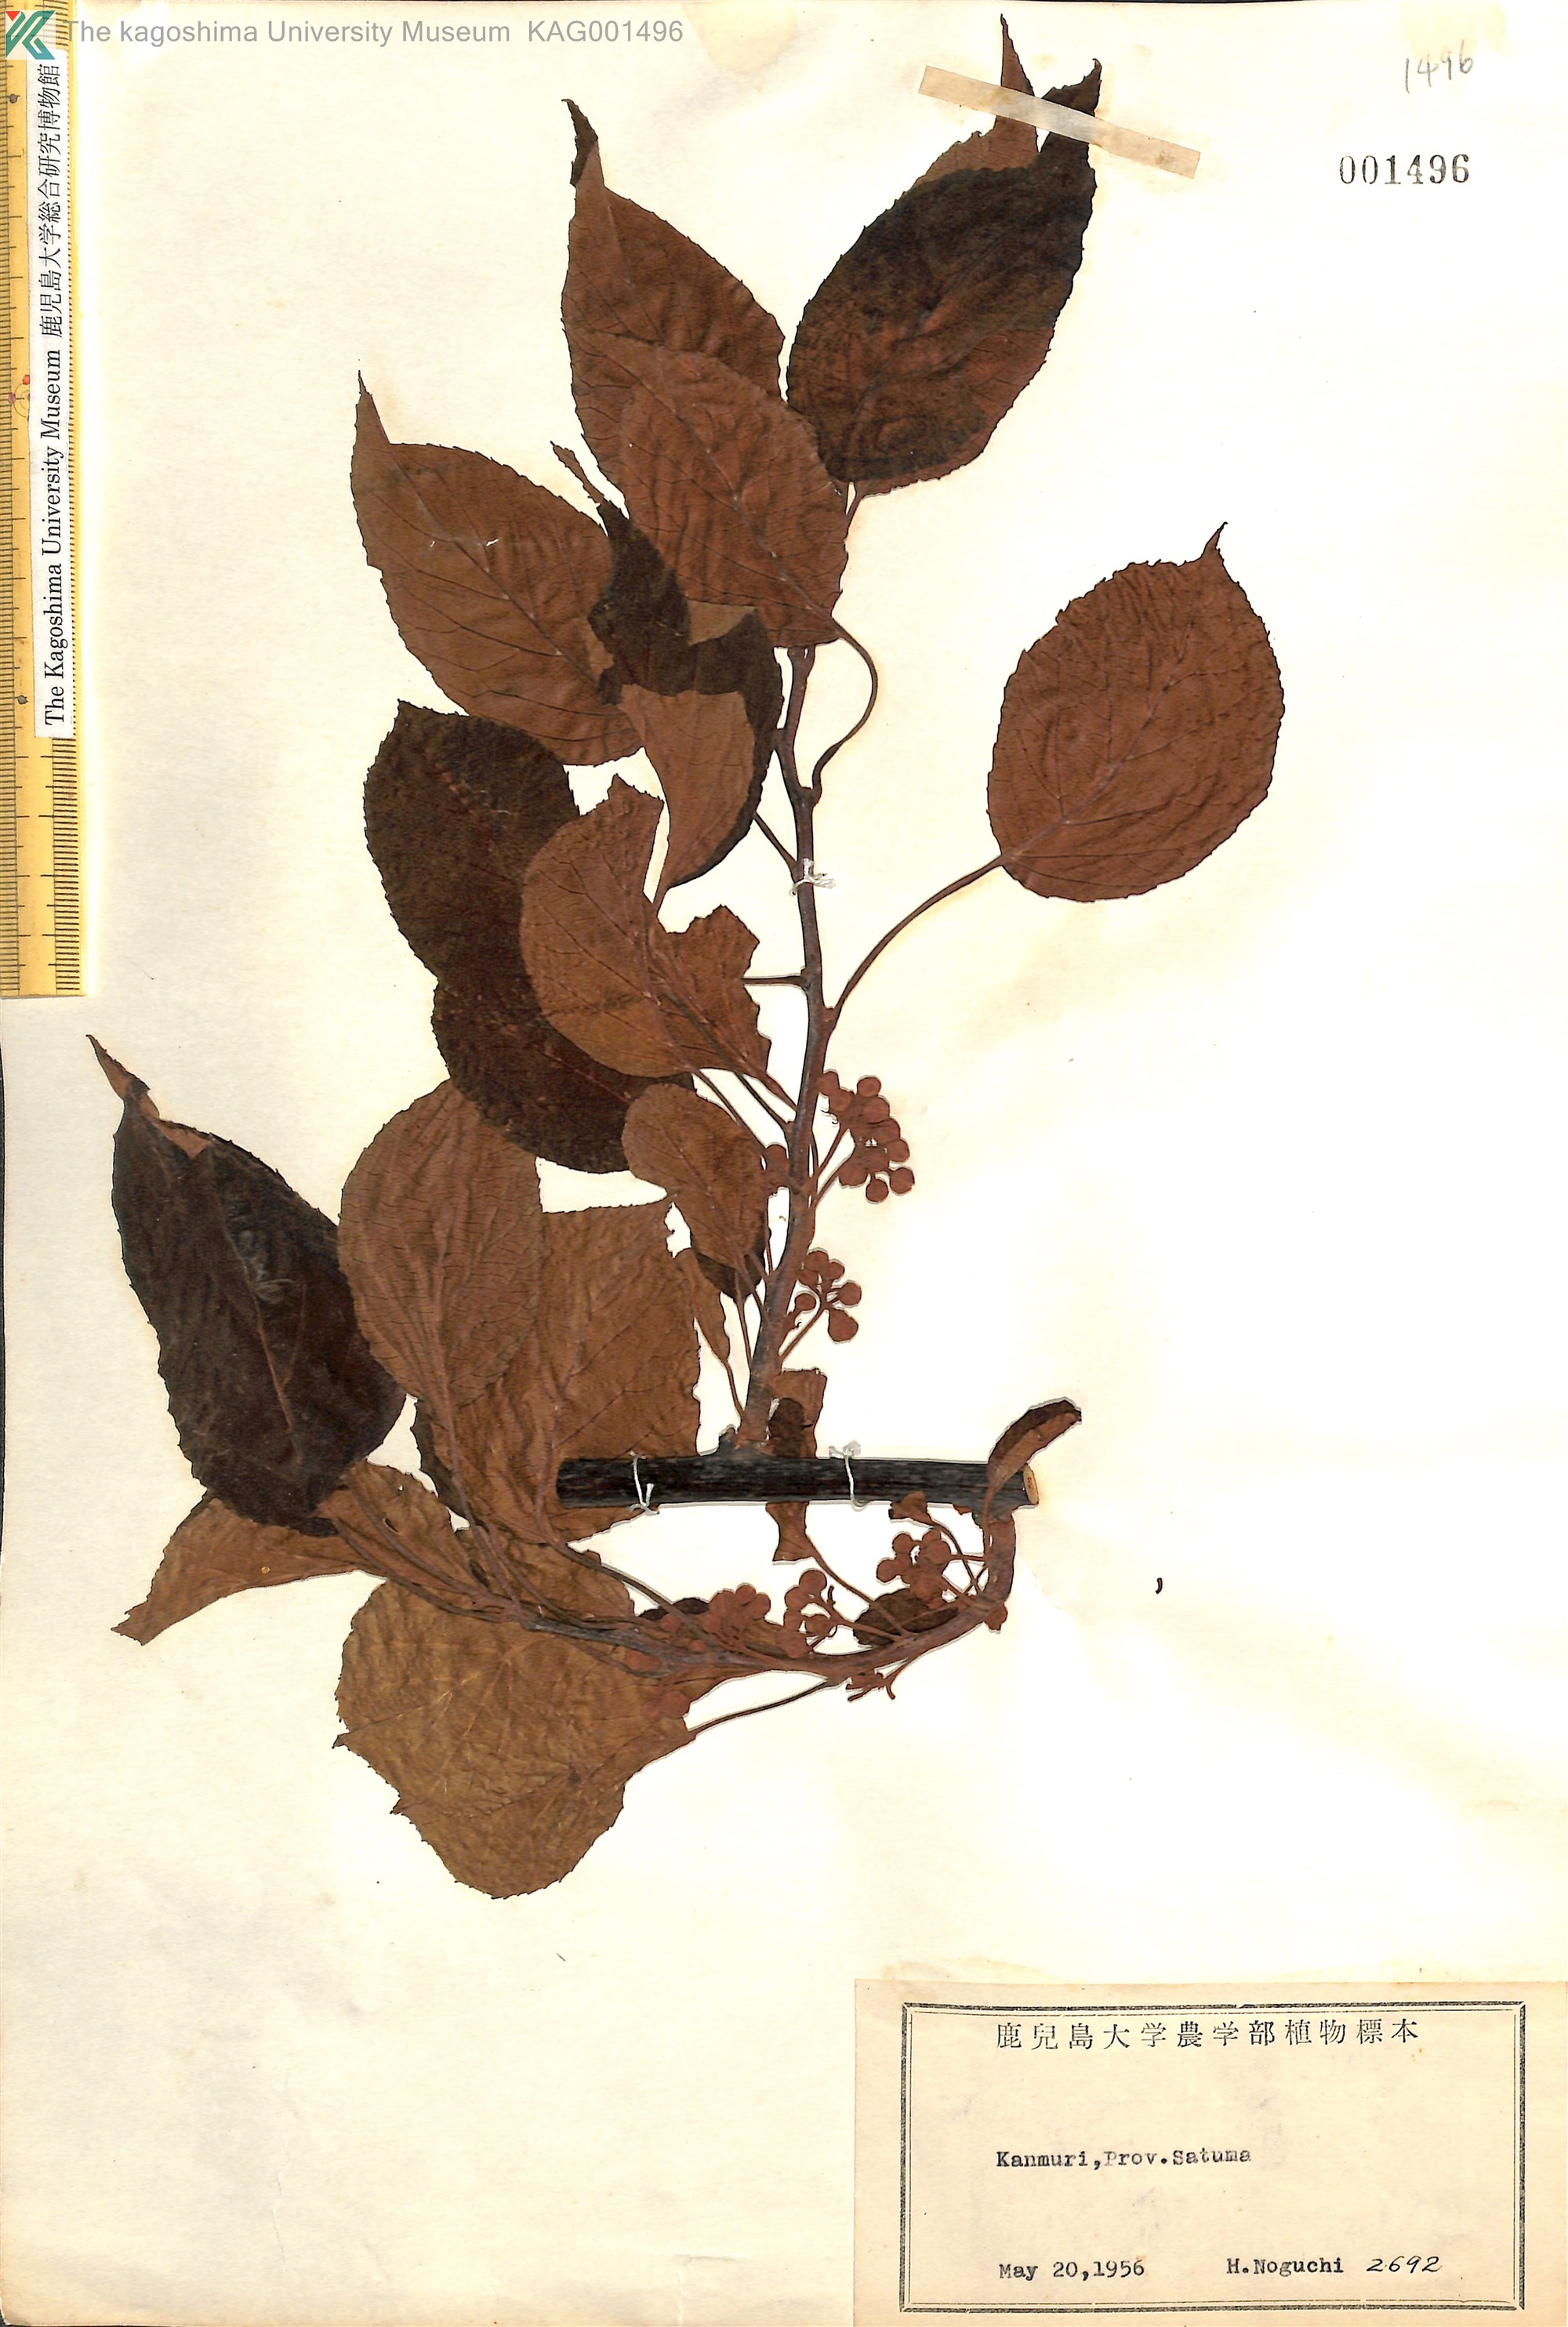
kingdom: Plantae
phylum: Tracheophyta
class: Magnoliopsida
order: Ericales
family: Actinidiaceae
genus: Actinidia
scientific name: Actinidia
